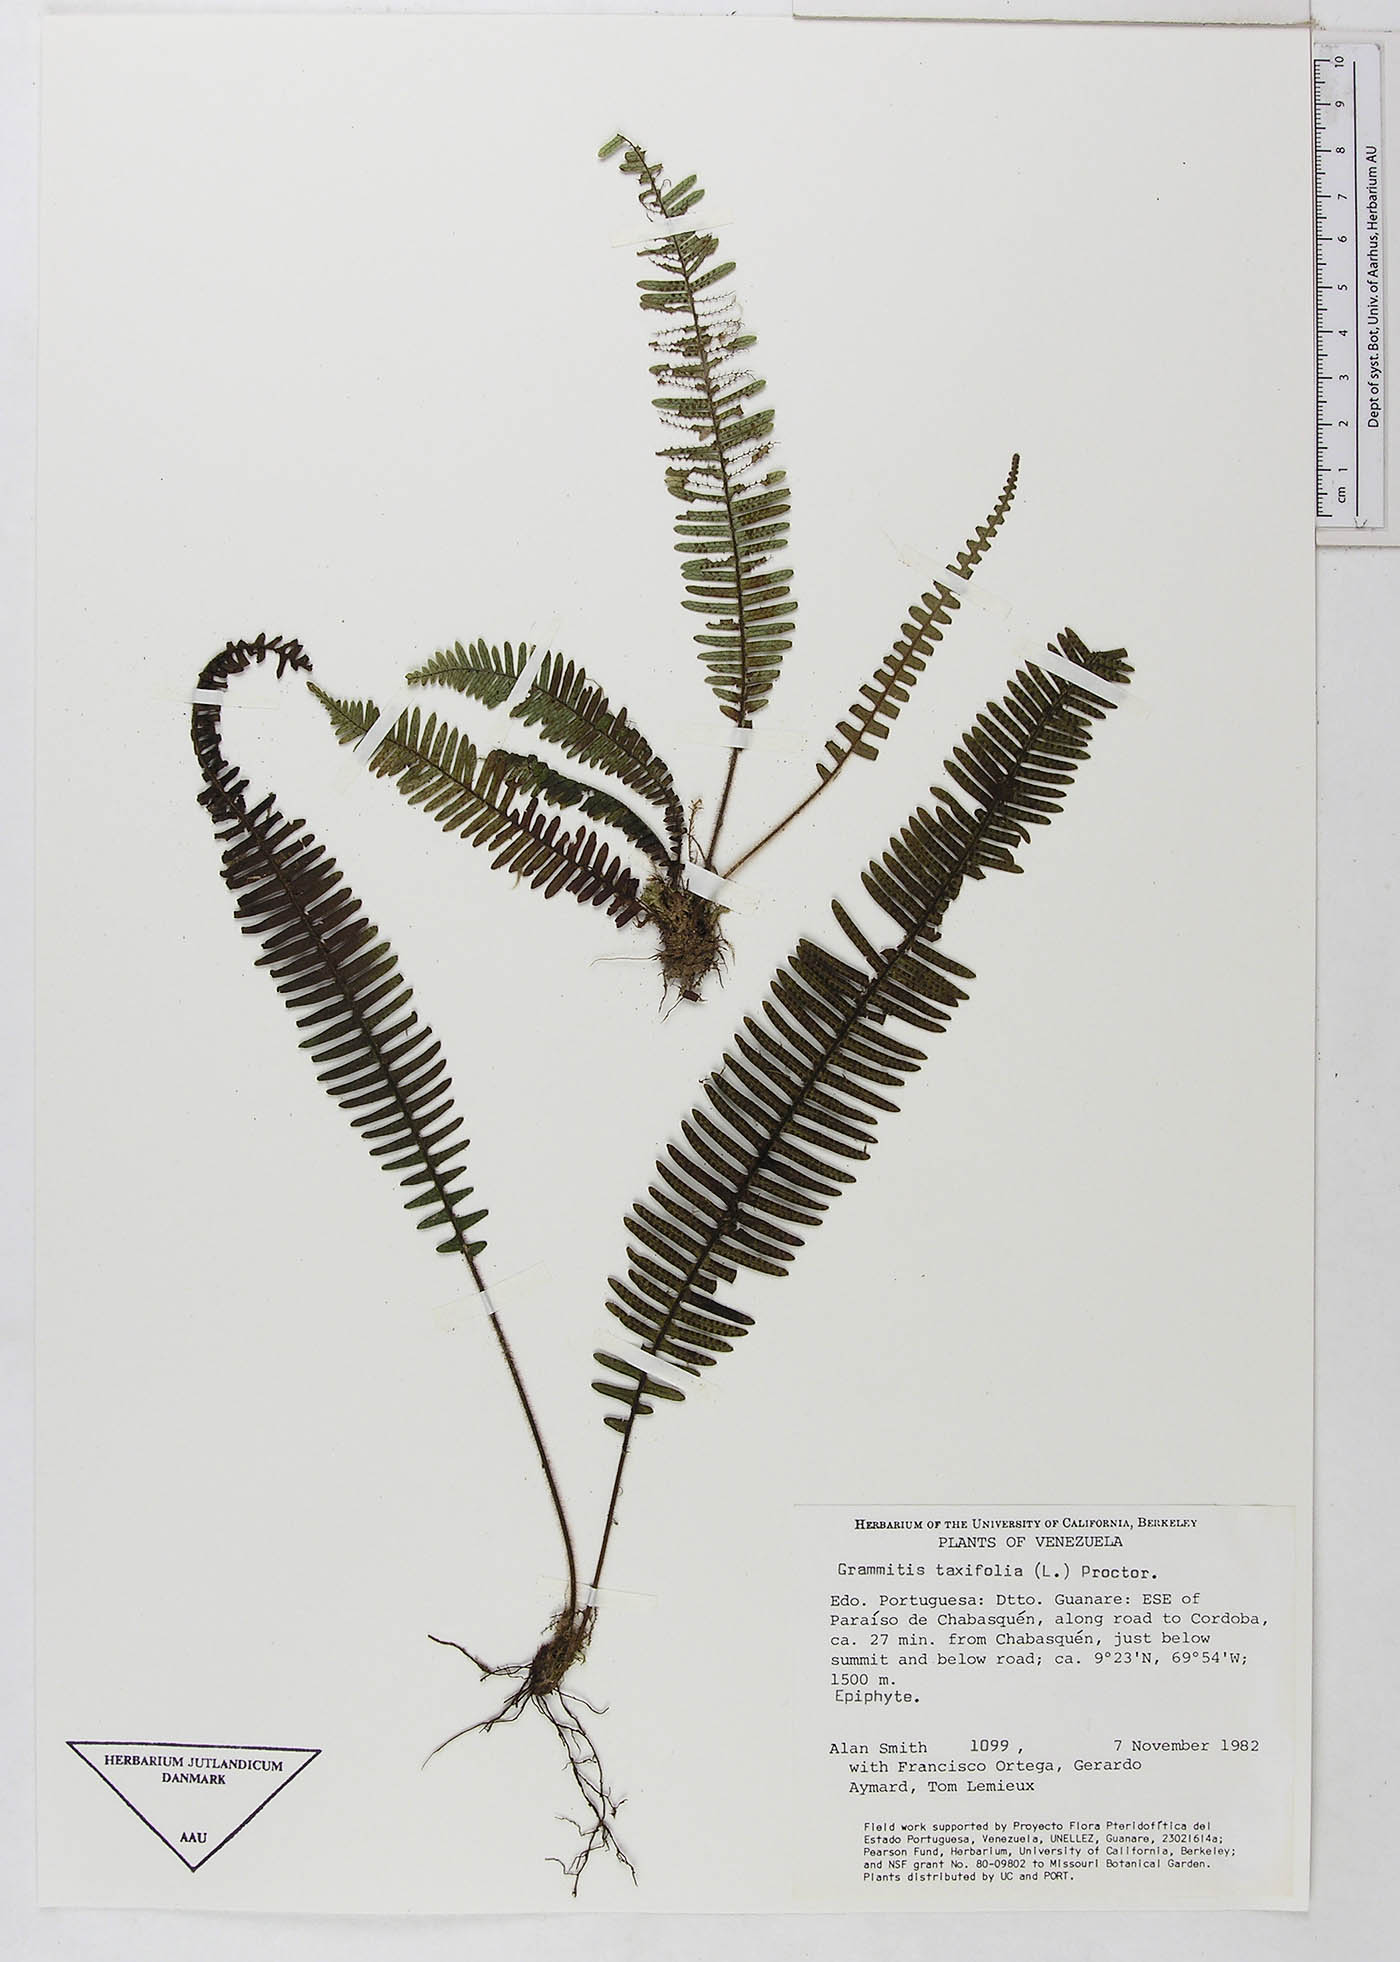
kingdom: Plantae
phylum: Tracheophyta
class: Polypodiopsida
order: Polypodiales
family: Polypodiaceae
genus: Mycopteris
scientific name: Mycopteris taxifolia
